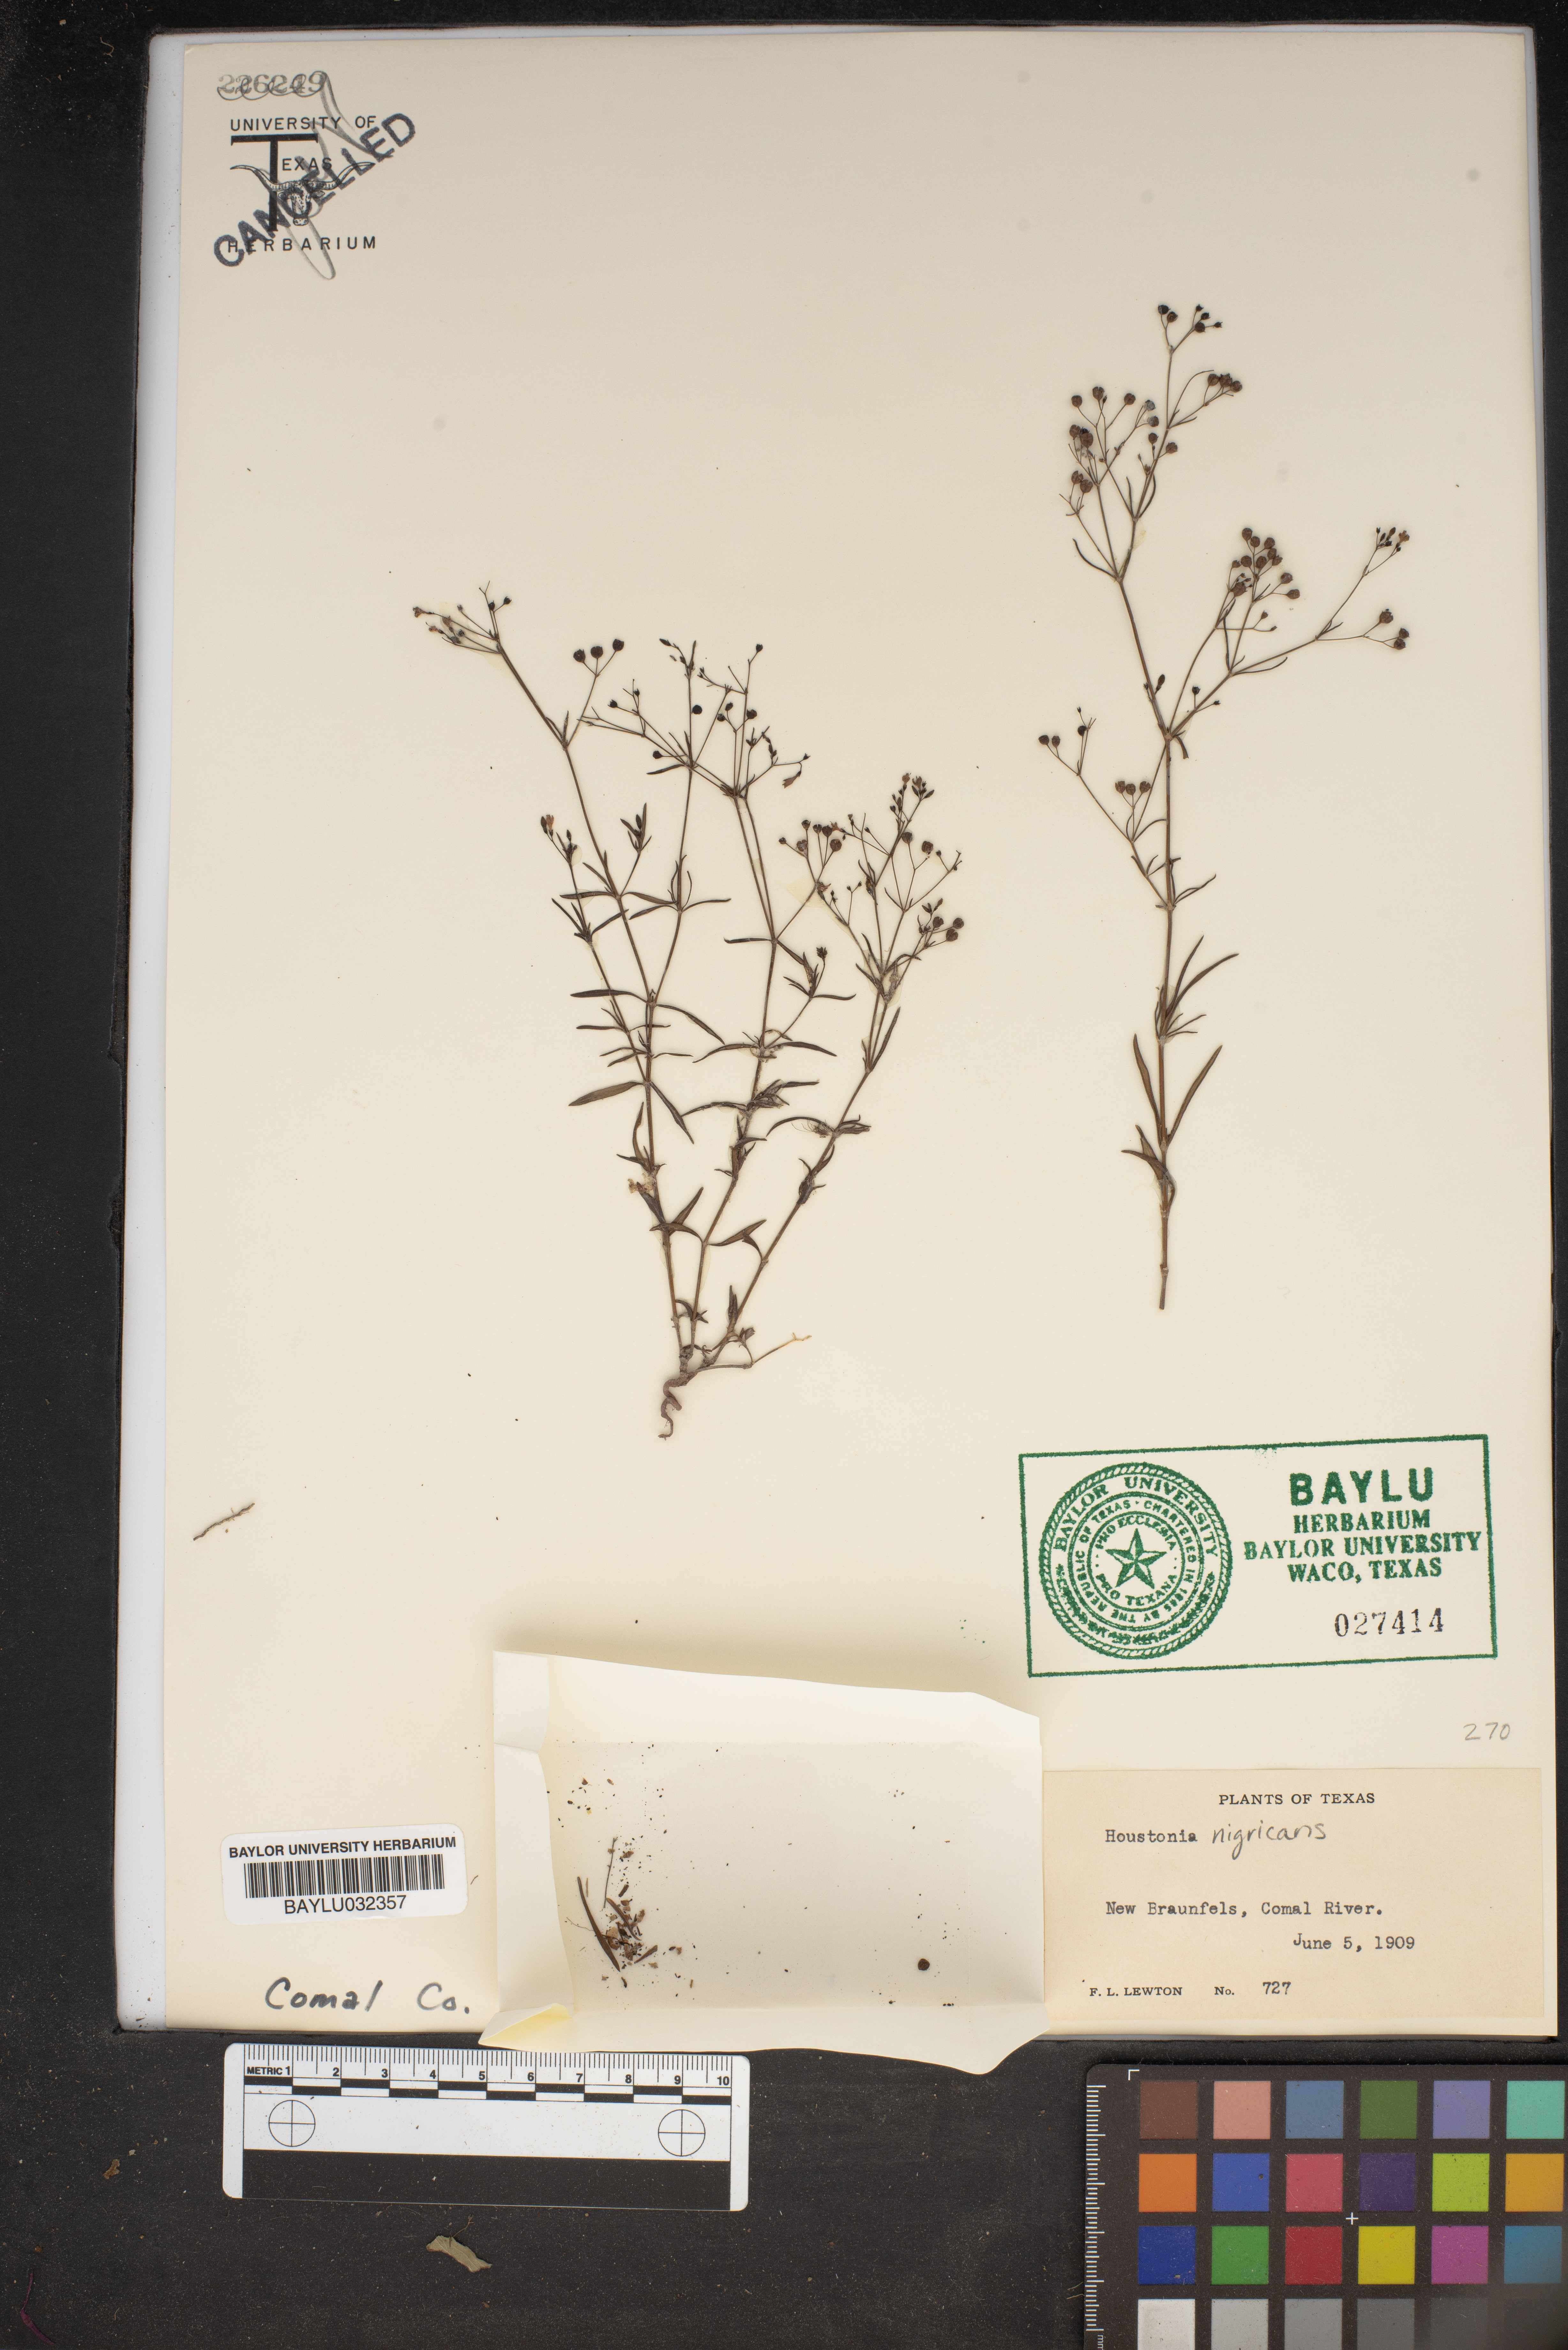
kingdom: Plantae
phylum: Tracheophyta
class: Magnoliopsida
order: Gentianales
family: Rubiaceae
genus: Stenaria
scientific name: Stenaria nigricans
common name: Diamondflowers
